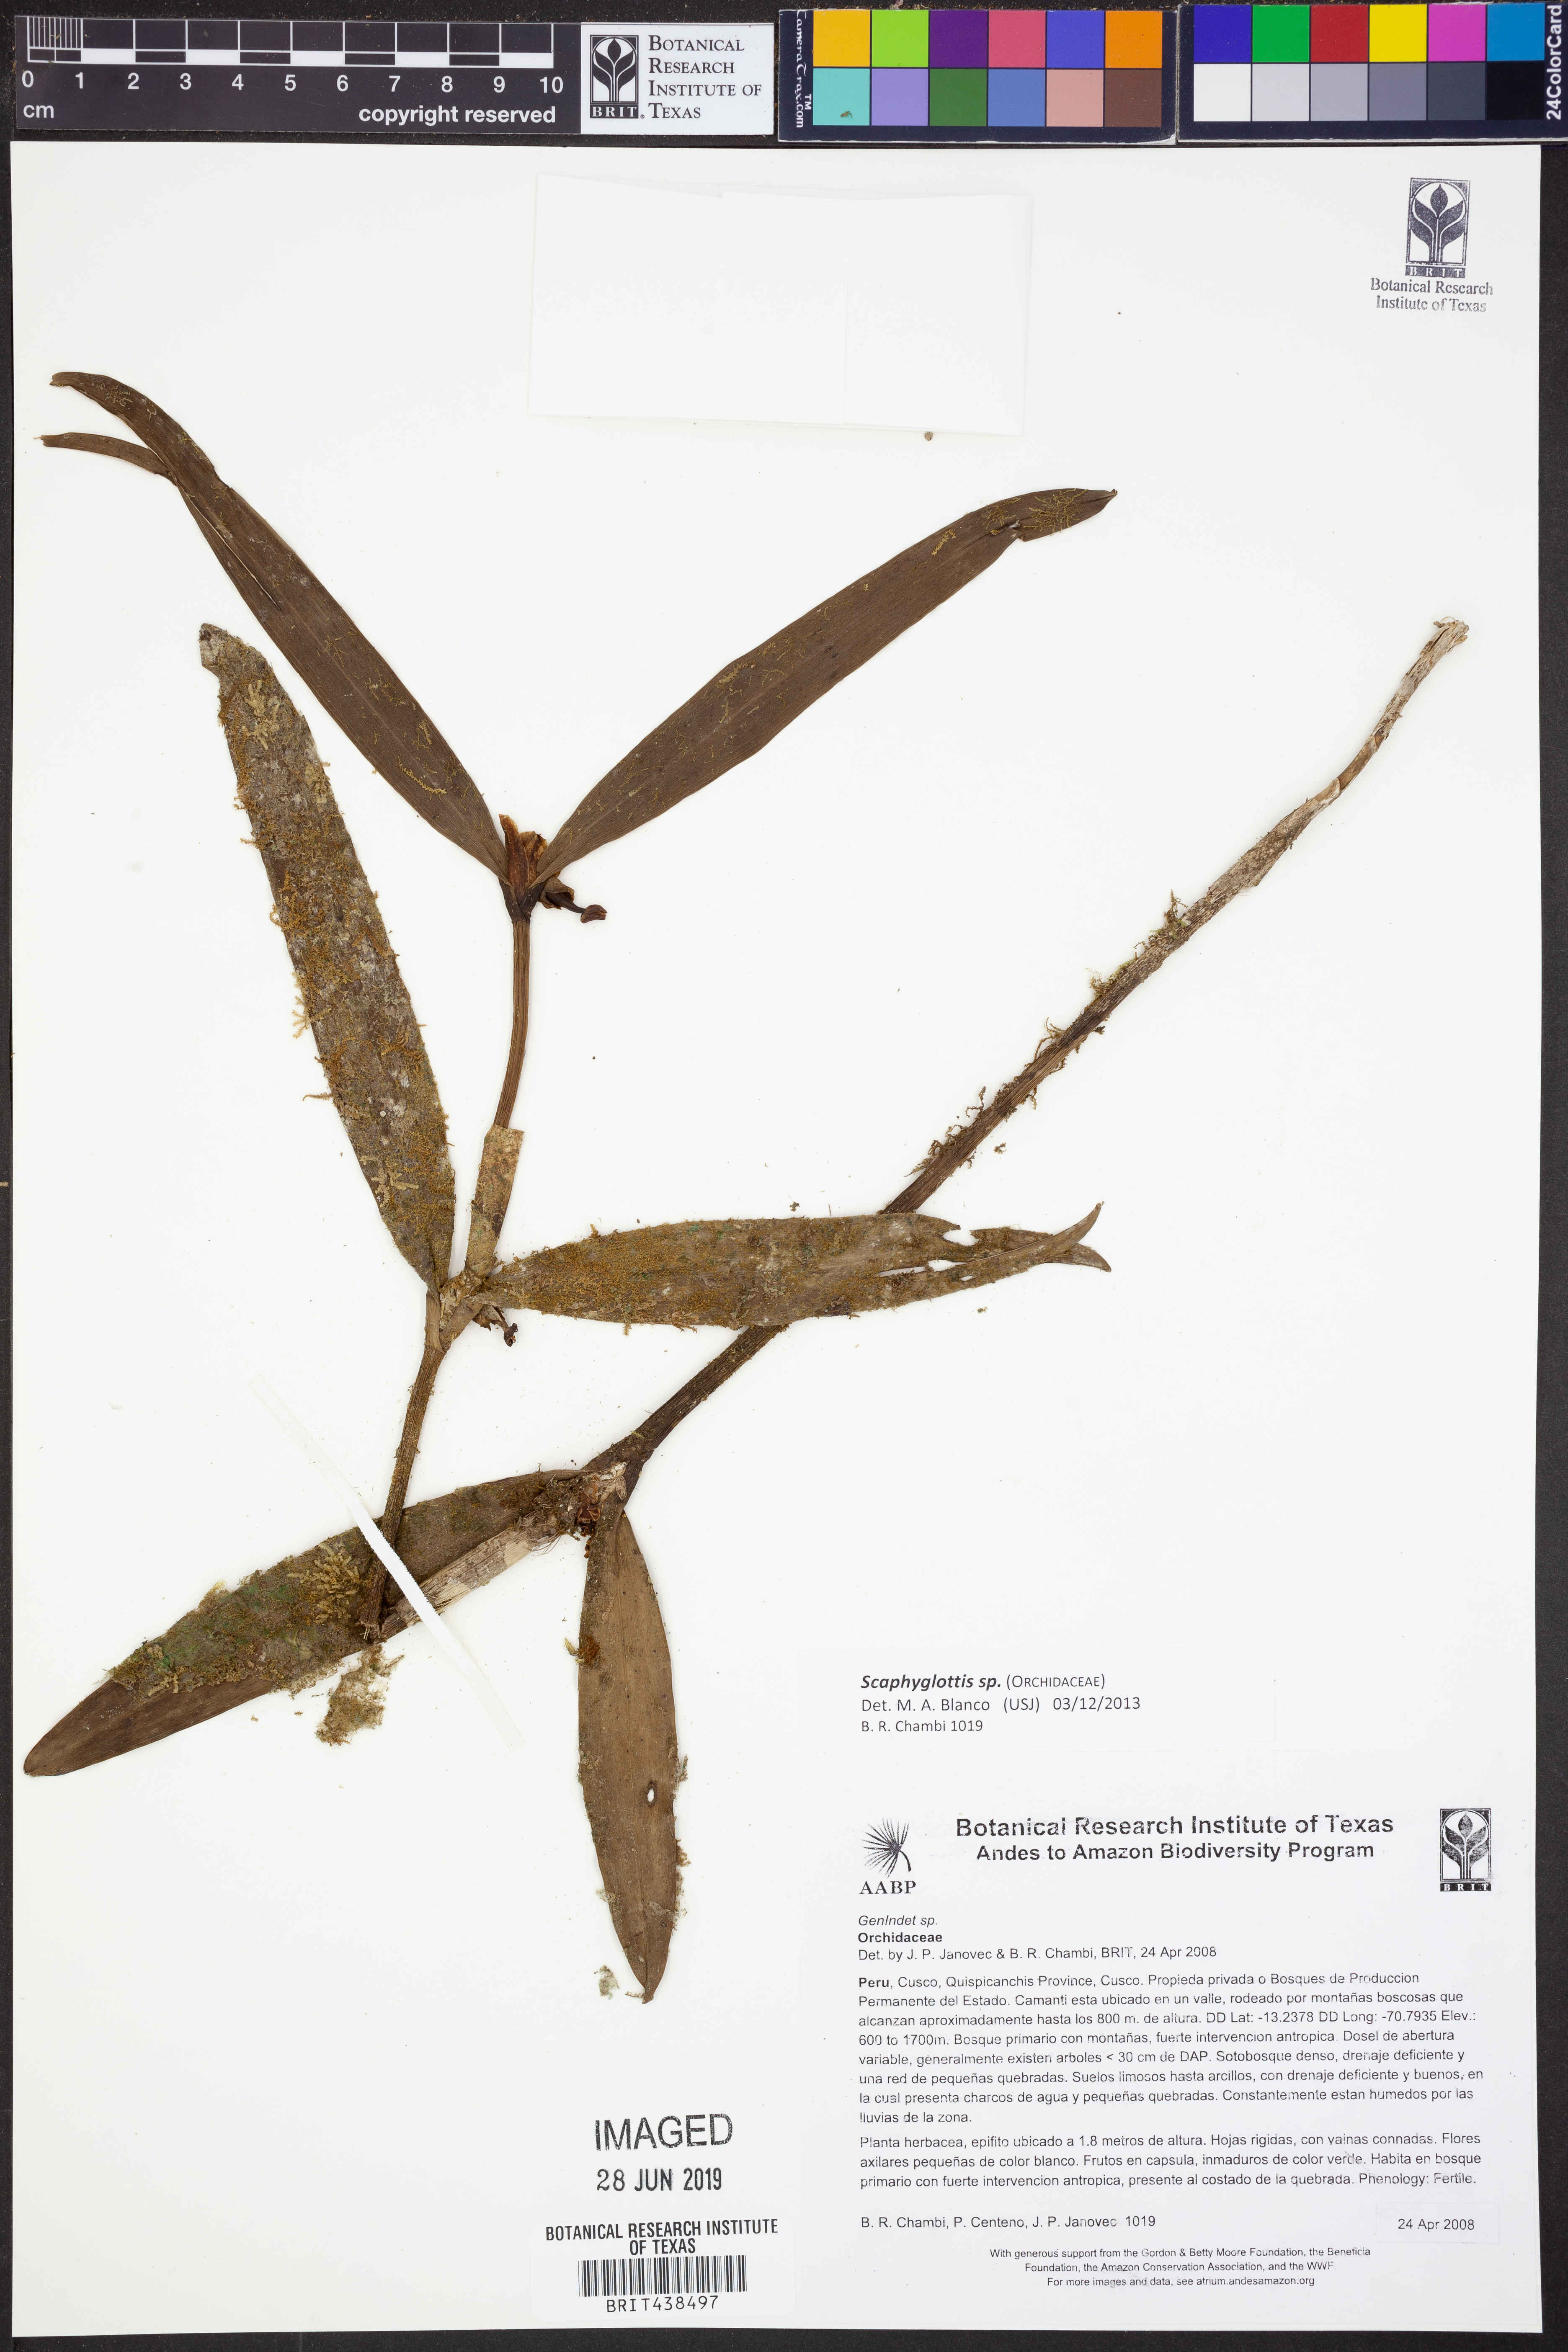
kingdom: Plantae
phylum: Tracheophyta
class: Liliopsida
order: Asparagales
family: Orchidaceae
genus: Scaphyglottis
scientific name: Scaphyglottis
